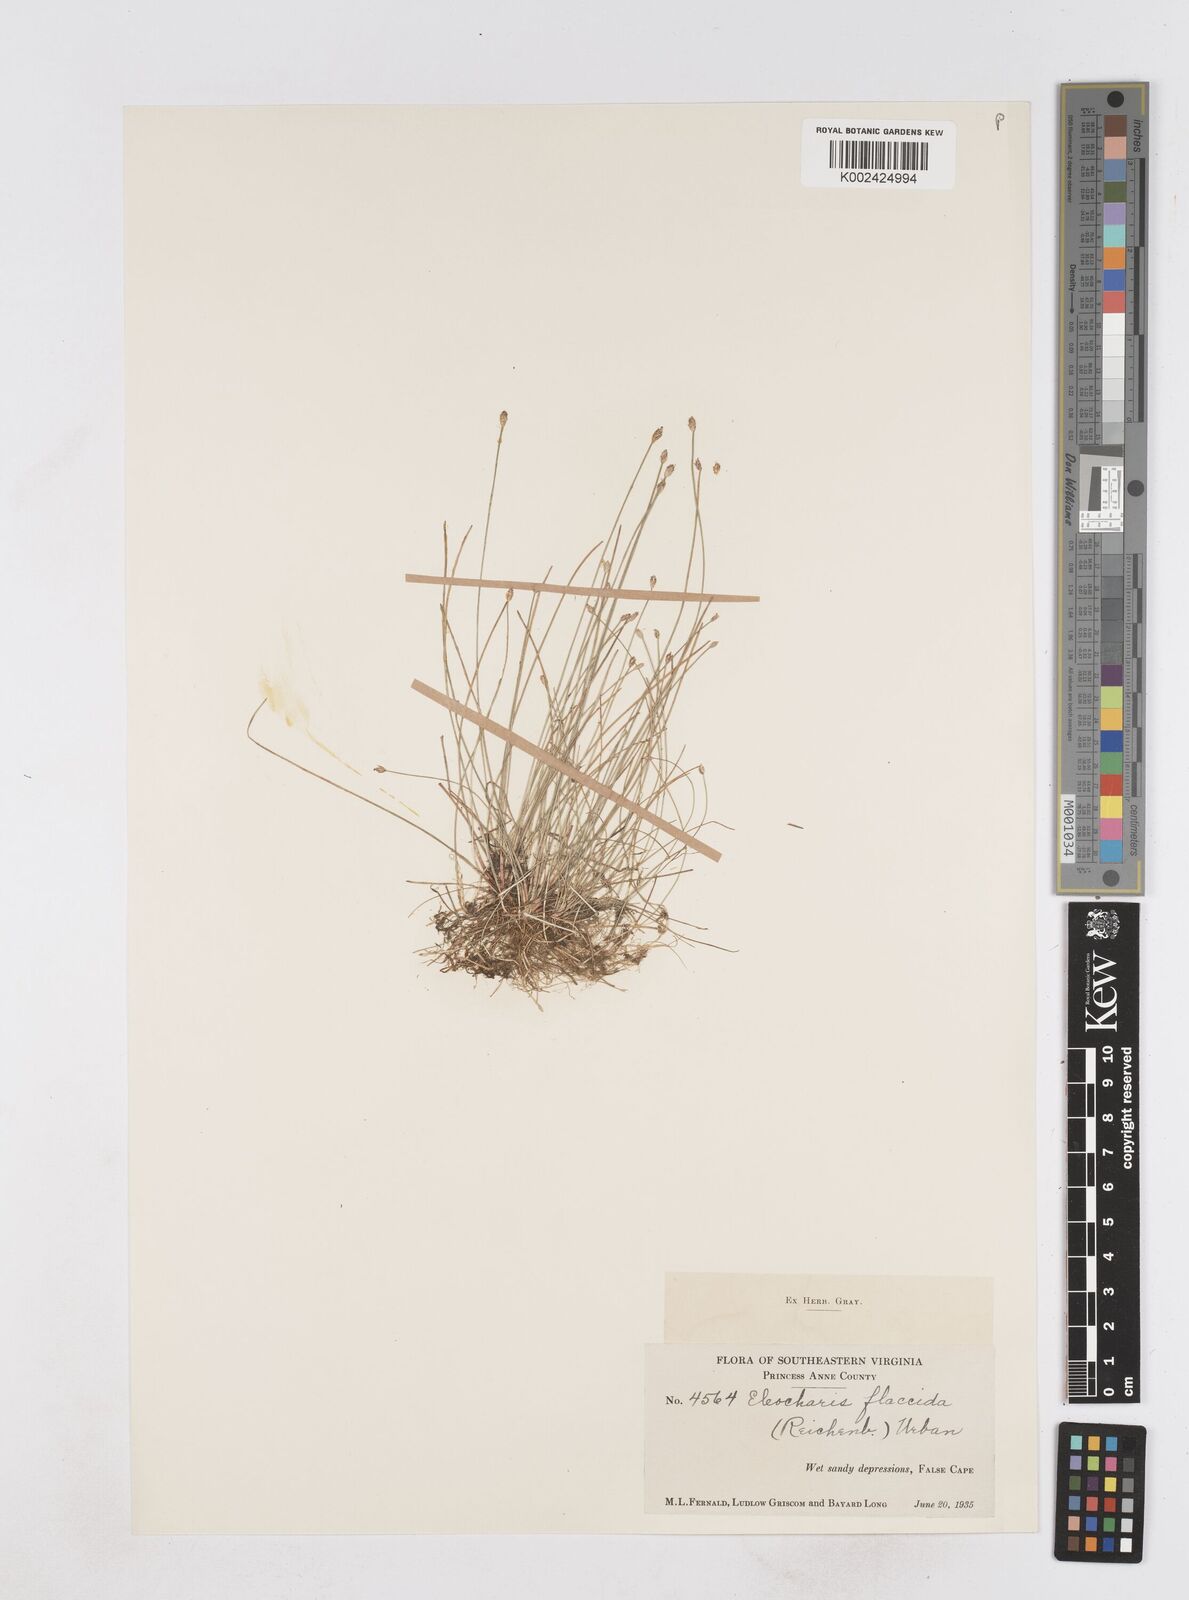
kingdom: Plantae
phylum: Tracheophyta
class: Liliopsida
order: Poales
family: Cyperaceae
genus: Eleocharis
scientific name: Eleocharis flavescens
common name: Yellow spikerush
